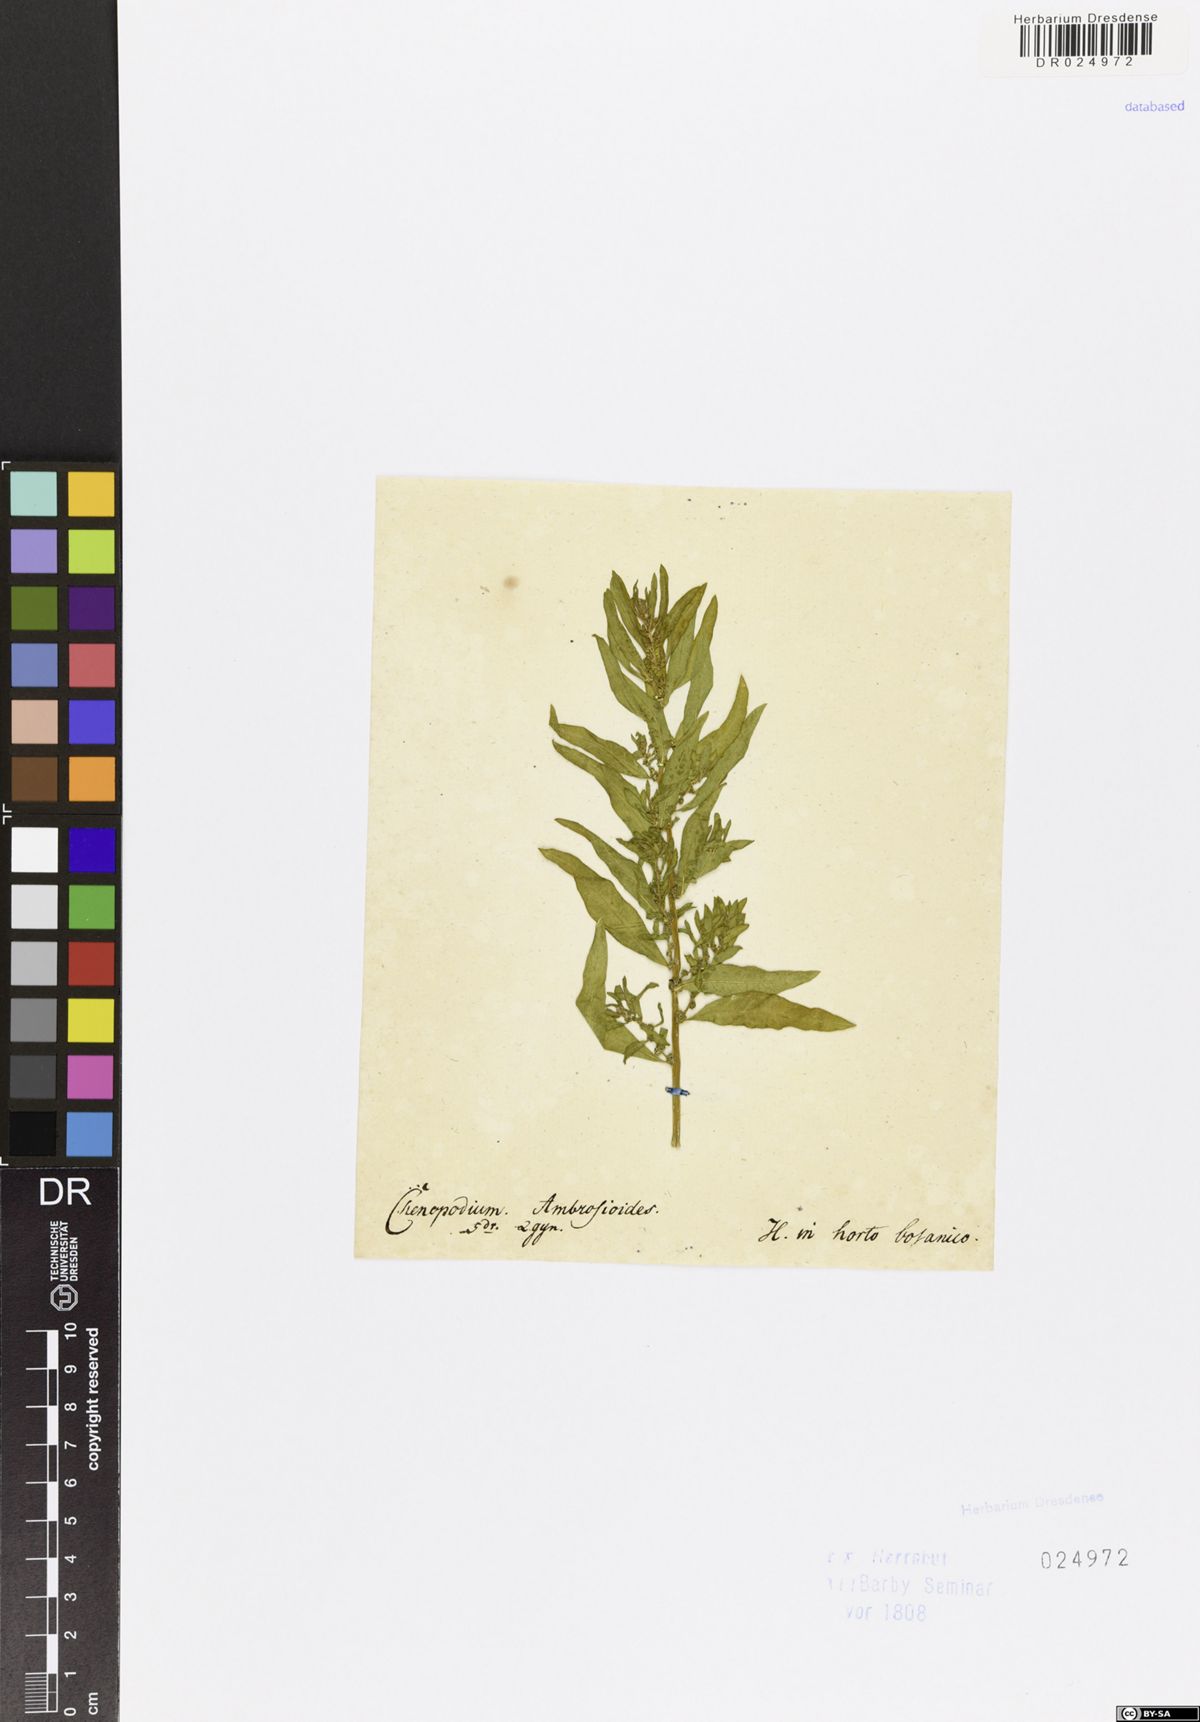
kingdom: Plantae
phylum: Tracheophyta
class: Magnoliopsida
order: Caryophyllales
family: Amaranthaceae
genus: Dysphania
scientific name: Dysphania ambrosioides
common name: Wormseed
